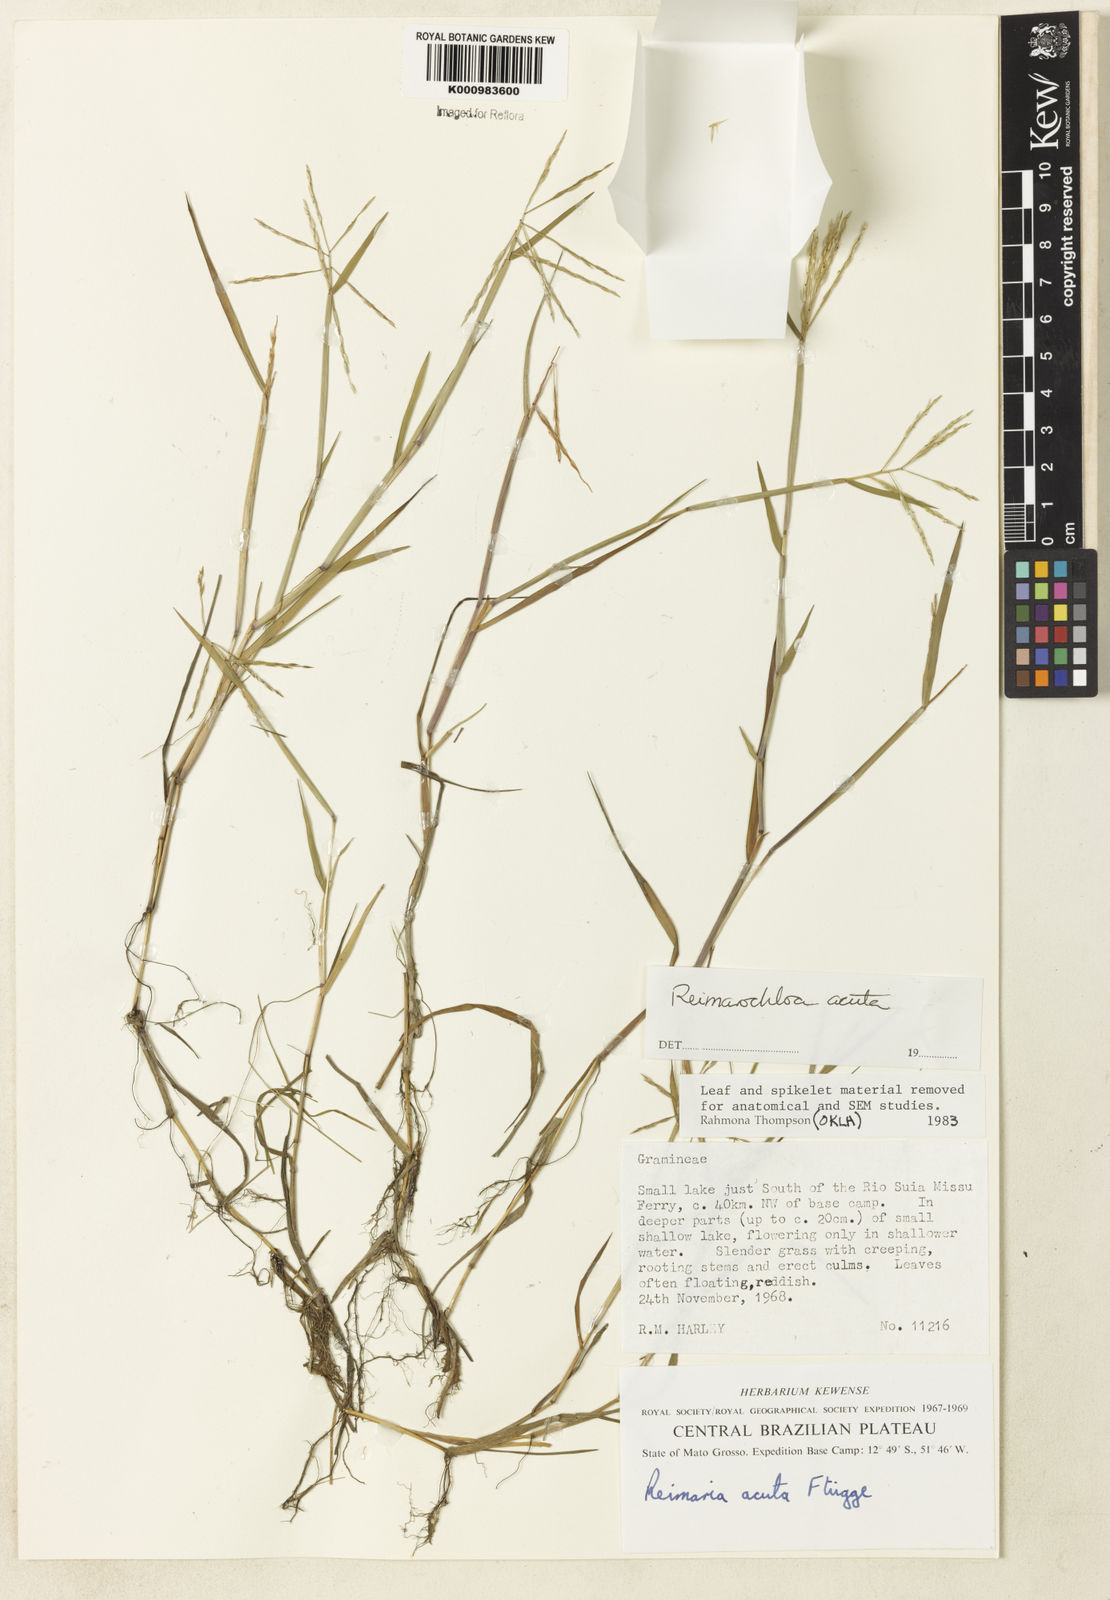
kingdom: Plantae
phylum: Tracheophyta
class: Liliopsida
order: Poales
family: Poaceae
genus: Paspalum
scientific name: Paspalum
